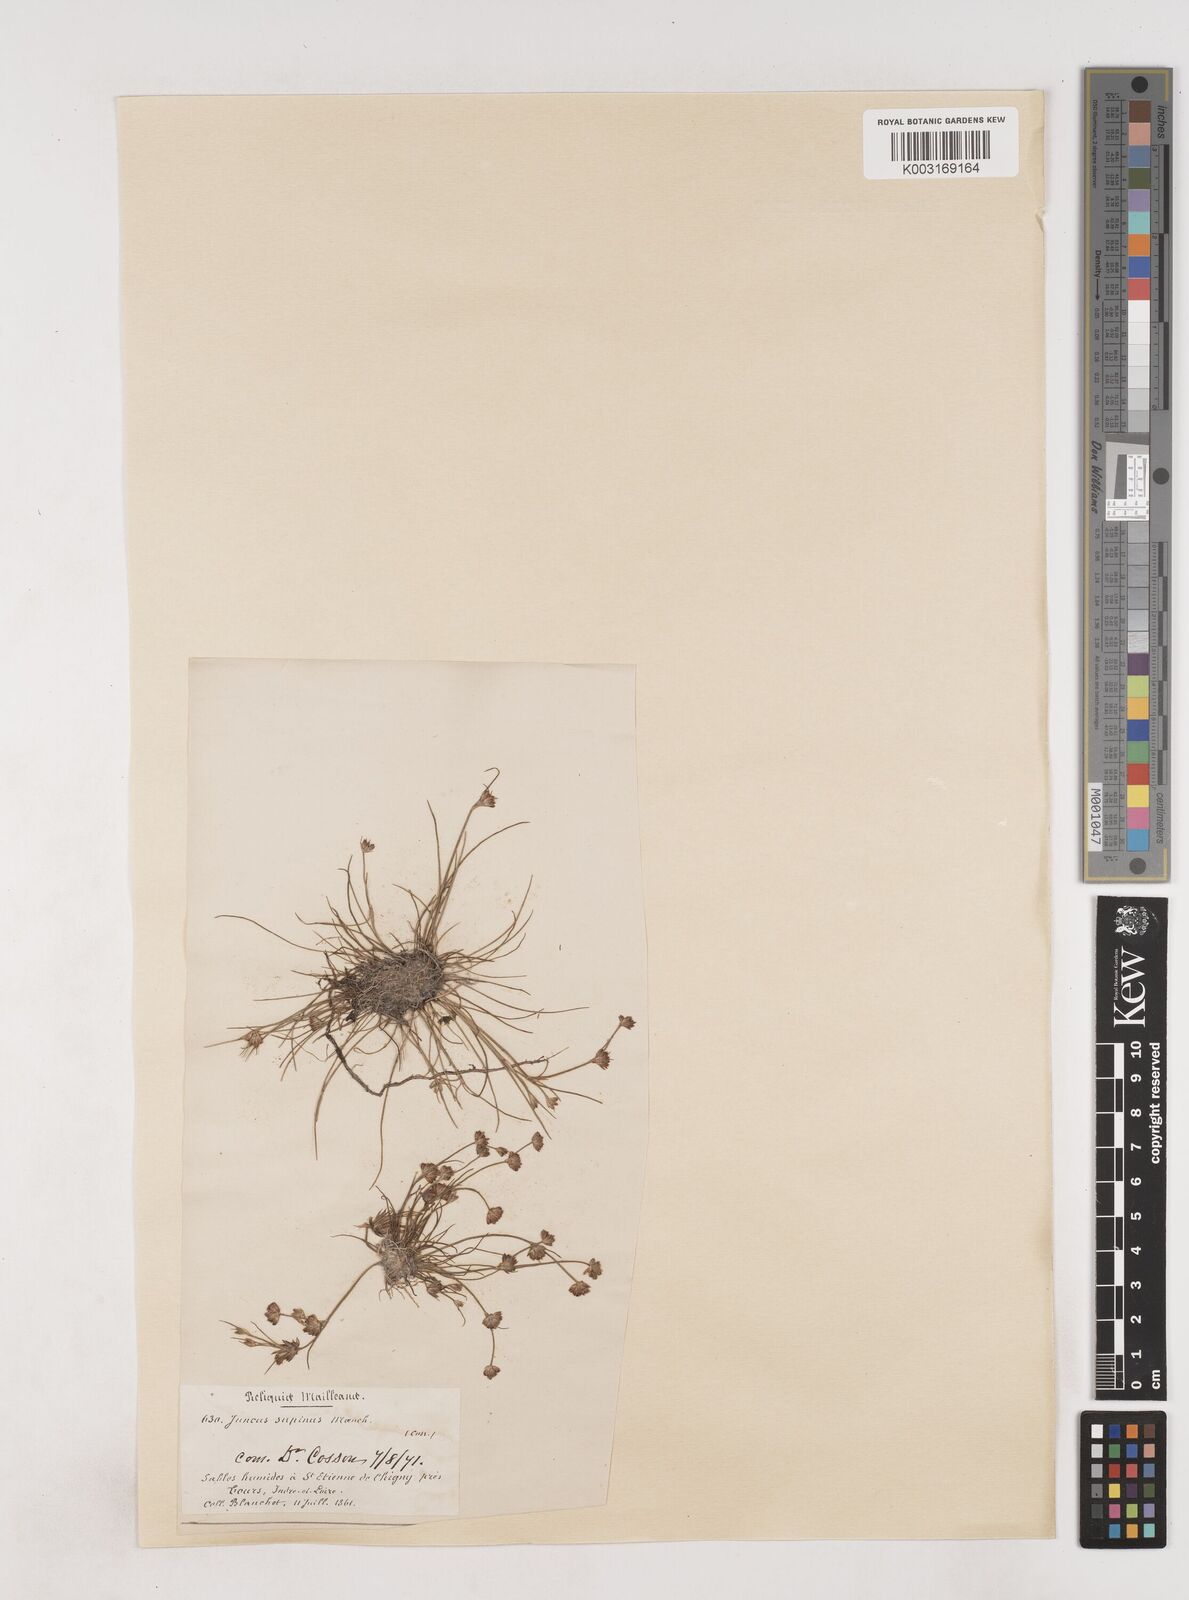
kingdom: Plantae
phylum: Tracheophyta
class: Liliopsida
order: Poales
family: Juncaceae
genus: Juncus
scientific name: Juncus bulbosus
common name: Bulbous rush
